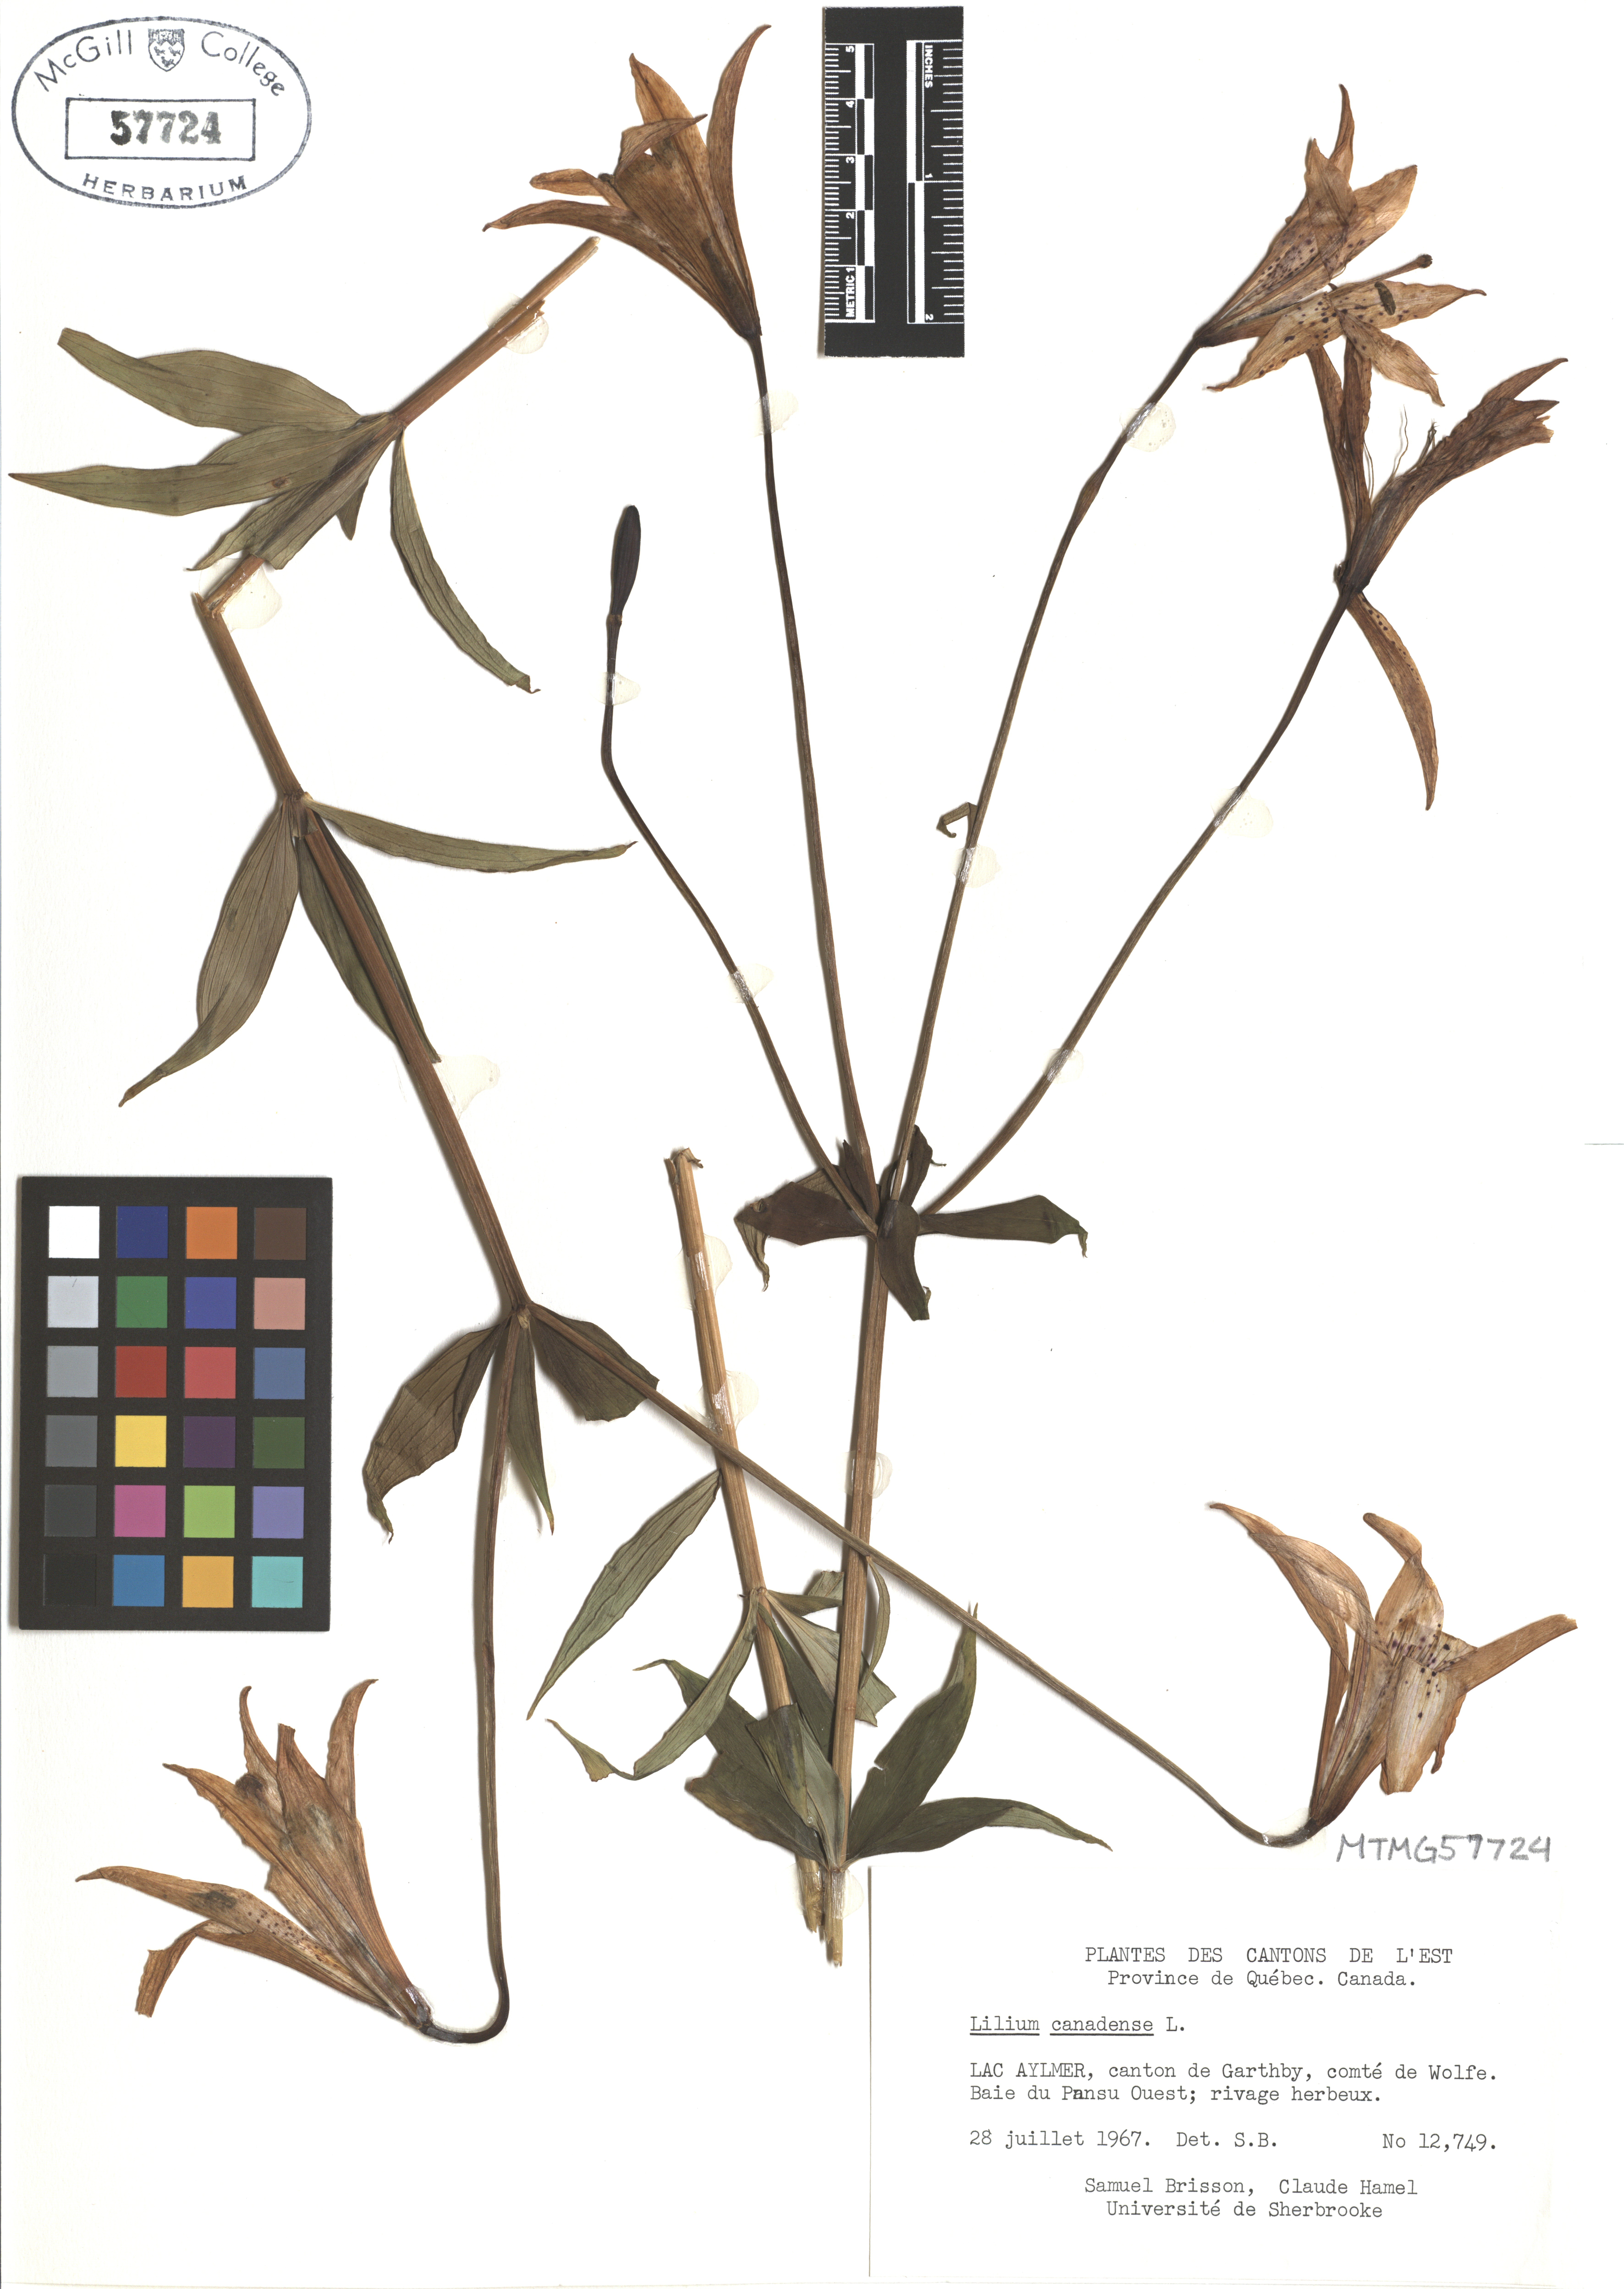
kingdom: Plantae
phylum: Tracheophyta
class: Liliopsida
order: Liliales
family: Liliaceae
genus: Lilium
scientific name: Lilium canadense
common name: Canada lily
